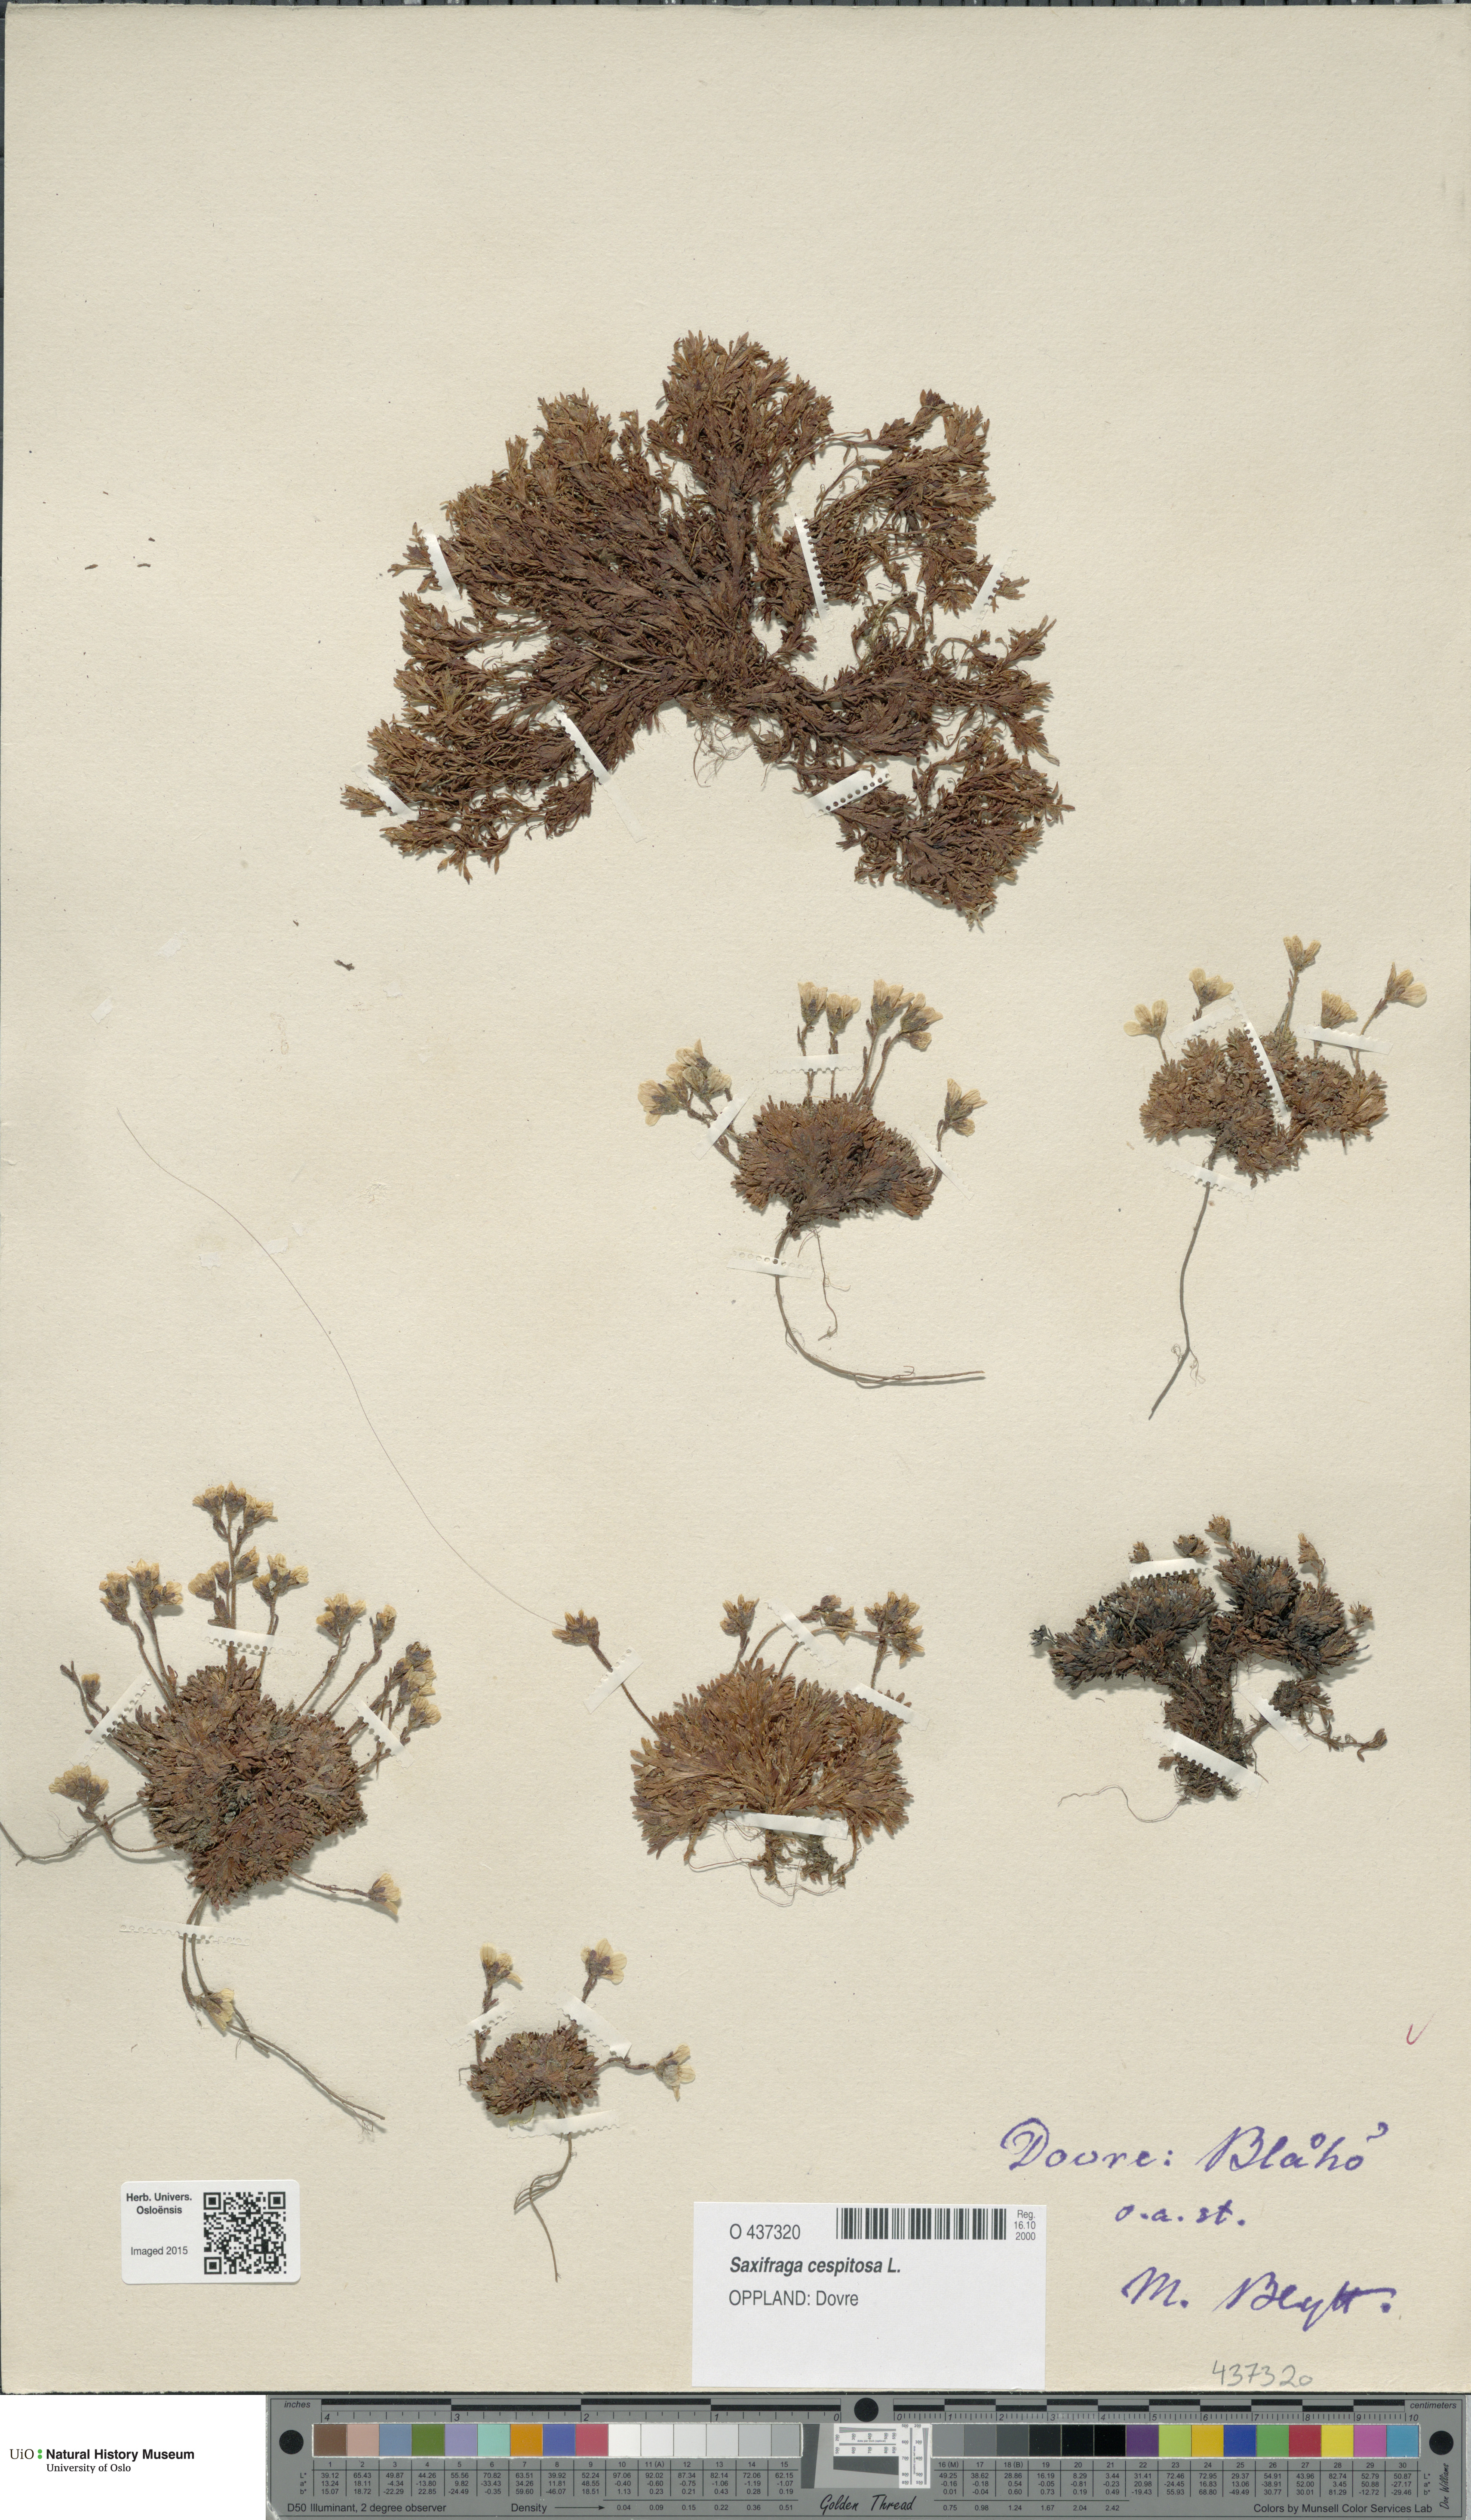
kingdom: Plantae
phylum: Tracheophyta
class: Magnoliopsida
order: Saxifragales
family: Saxifragaceae
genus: Saxifraga
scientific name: Saxifraga cespitosa
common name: Tufted saxifrage
